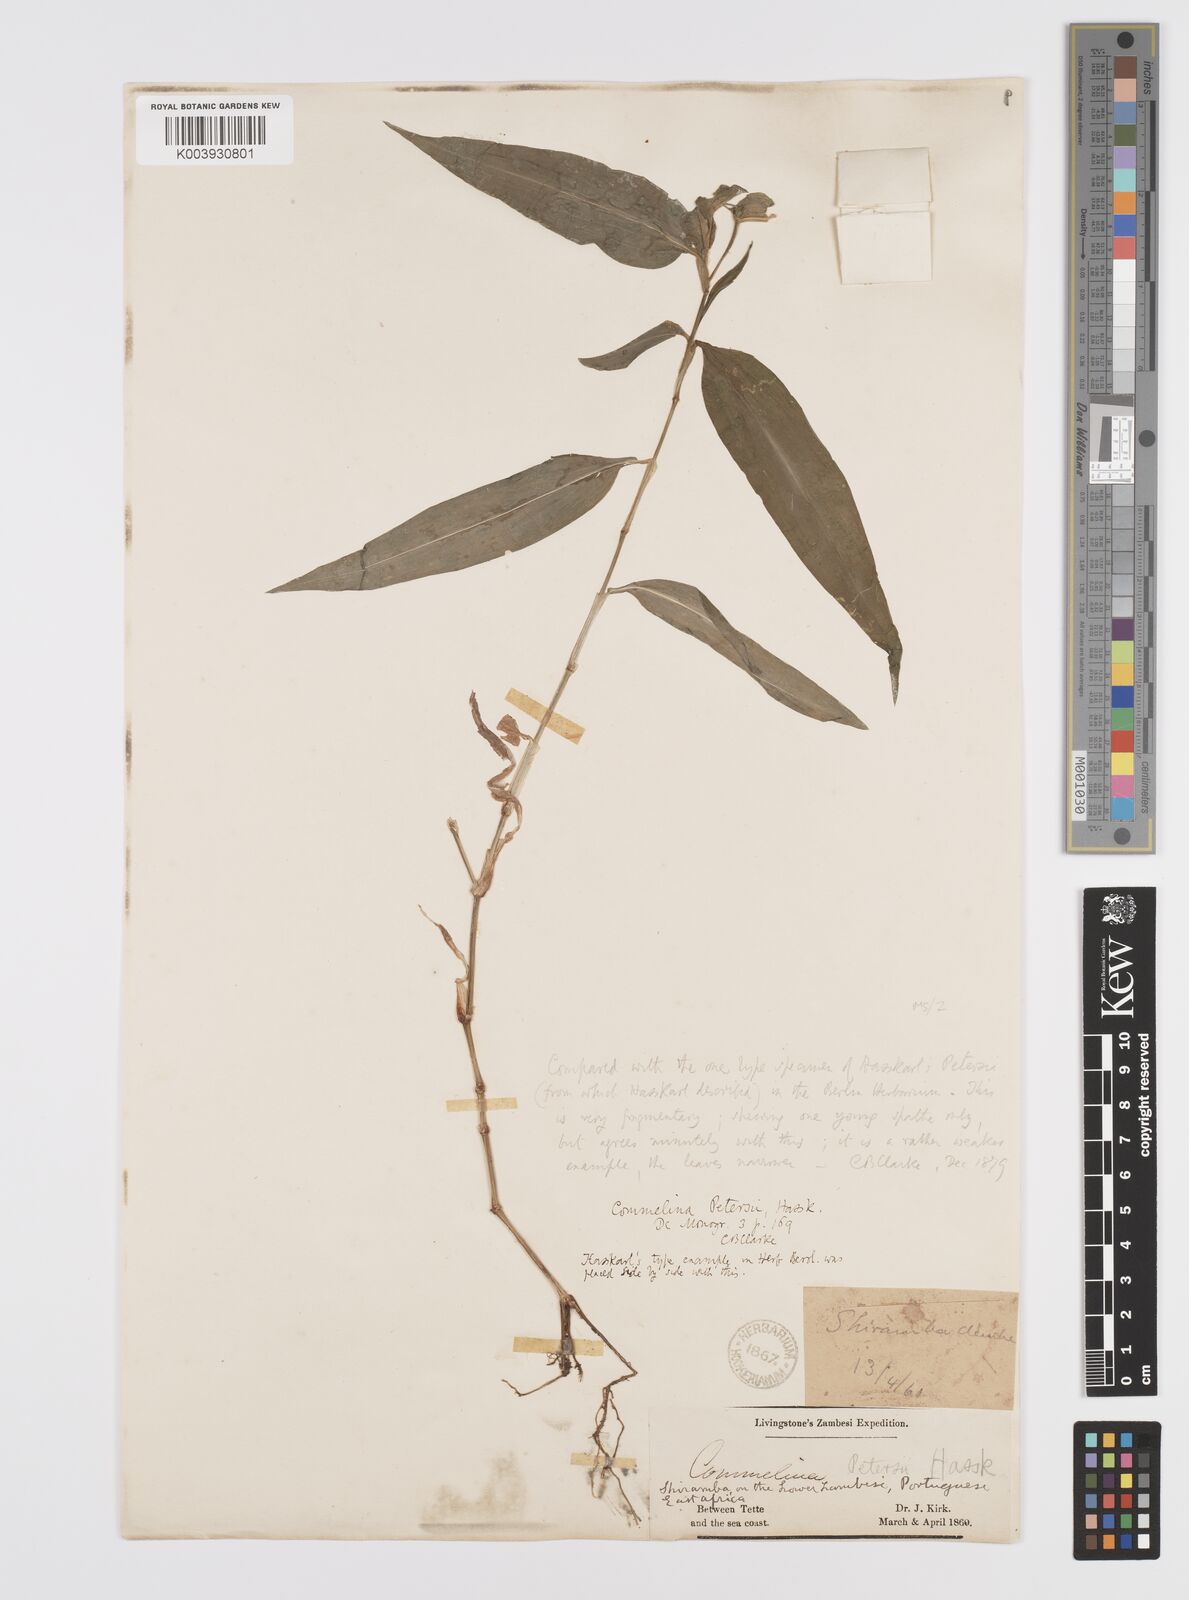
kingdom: Plantae
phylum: Tracheophyta
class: Liliopsida
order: Commelinales
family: Commelinaceae
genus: Commelina
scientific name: Commelina petersii
